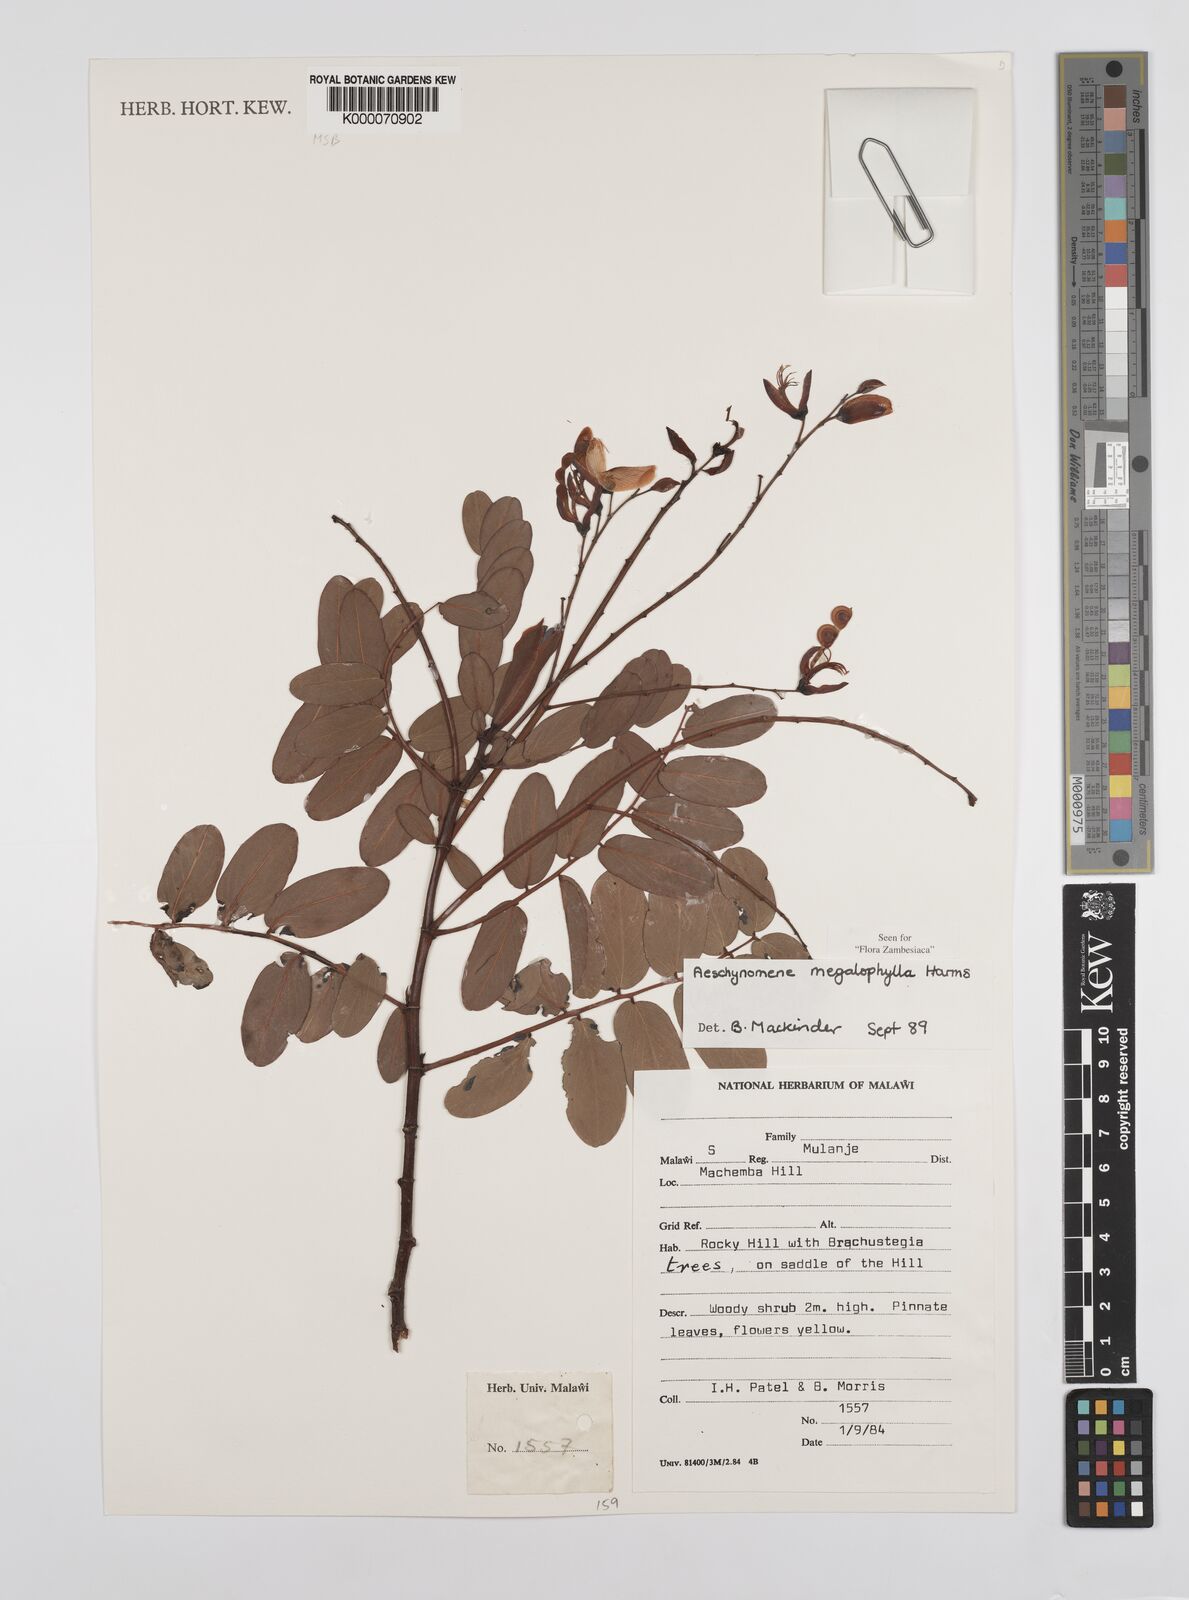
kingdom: Plantae
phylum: Tracheophyta
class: Magnoliopsida
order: Fabales
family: Fabaceae
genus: Aeschynomene
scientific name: Aeschynomene megalophylla
